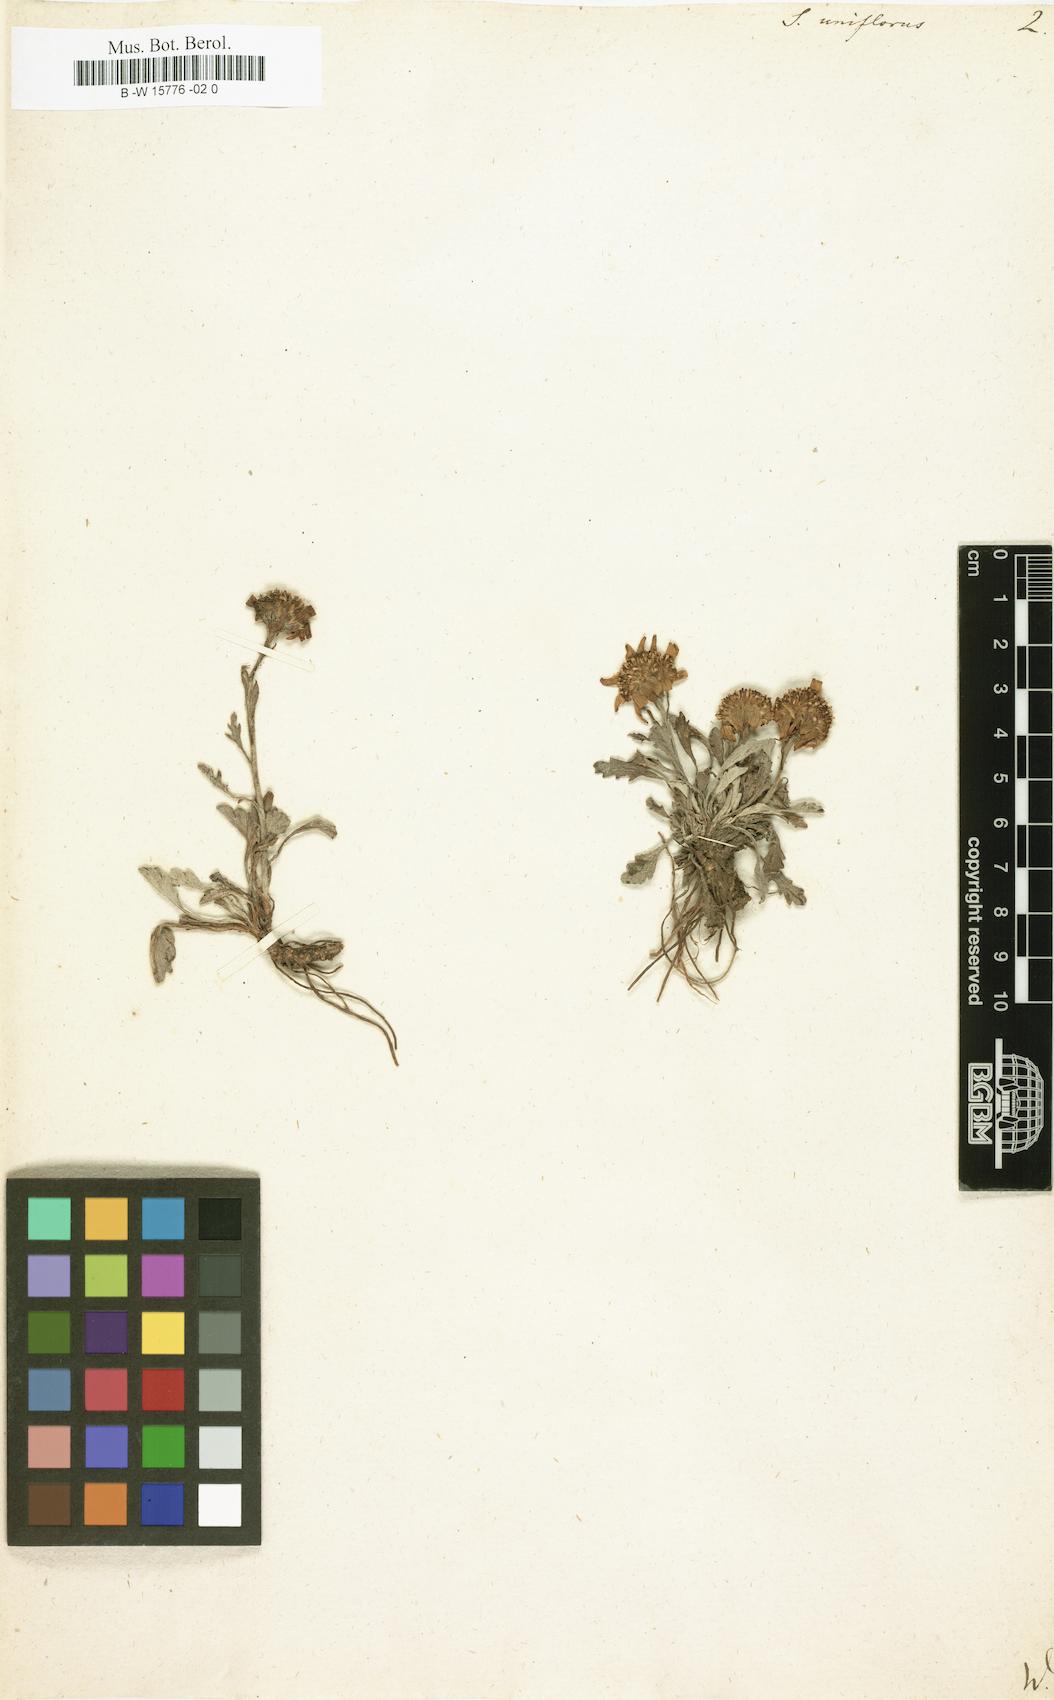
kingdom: Plantae
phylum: Tracheophyta
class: Magnoliopsida
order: Asterales
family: Asteraceae
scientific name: Asteraceae
